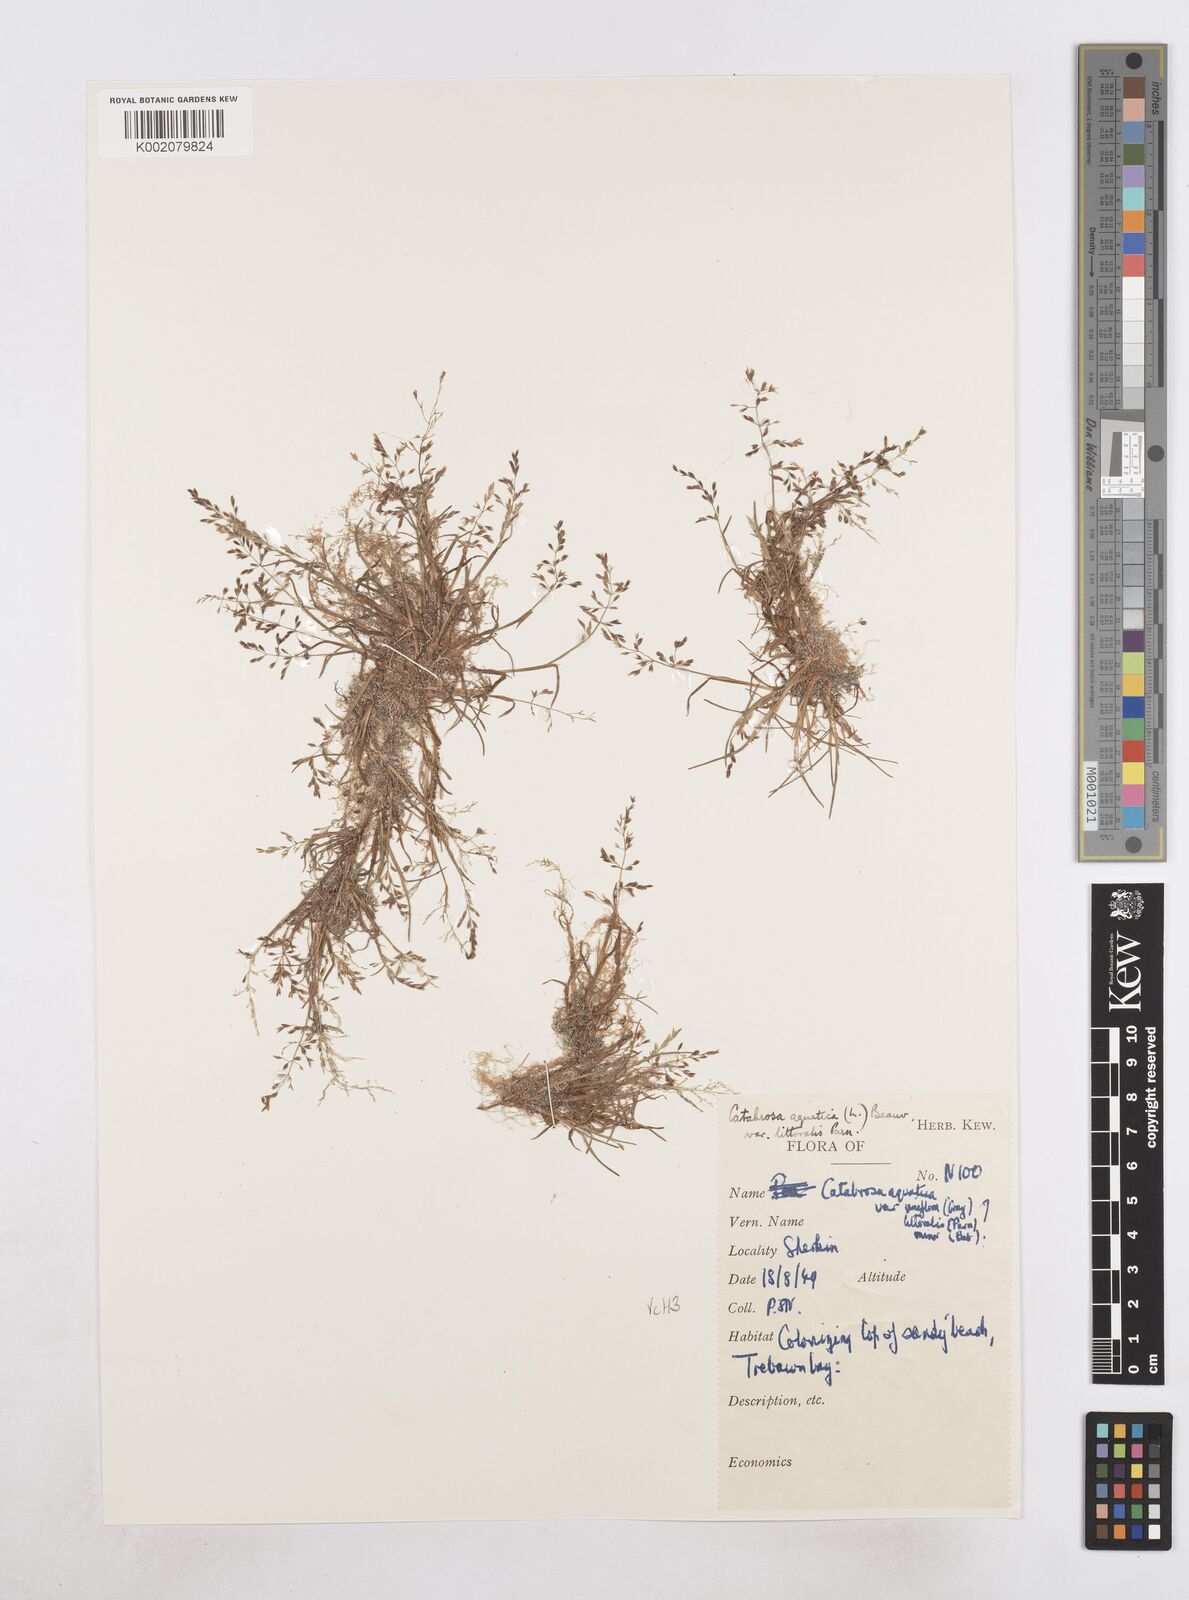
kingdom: Plantae
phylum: Tracheophyta
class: Liliopsida
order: Poales
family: Poaceae
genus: Catabrosa
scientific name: Catabrosa aquatica
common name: Whorl-grass
